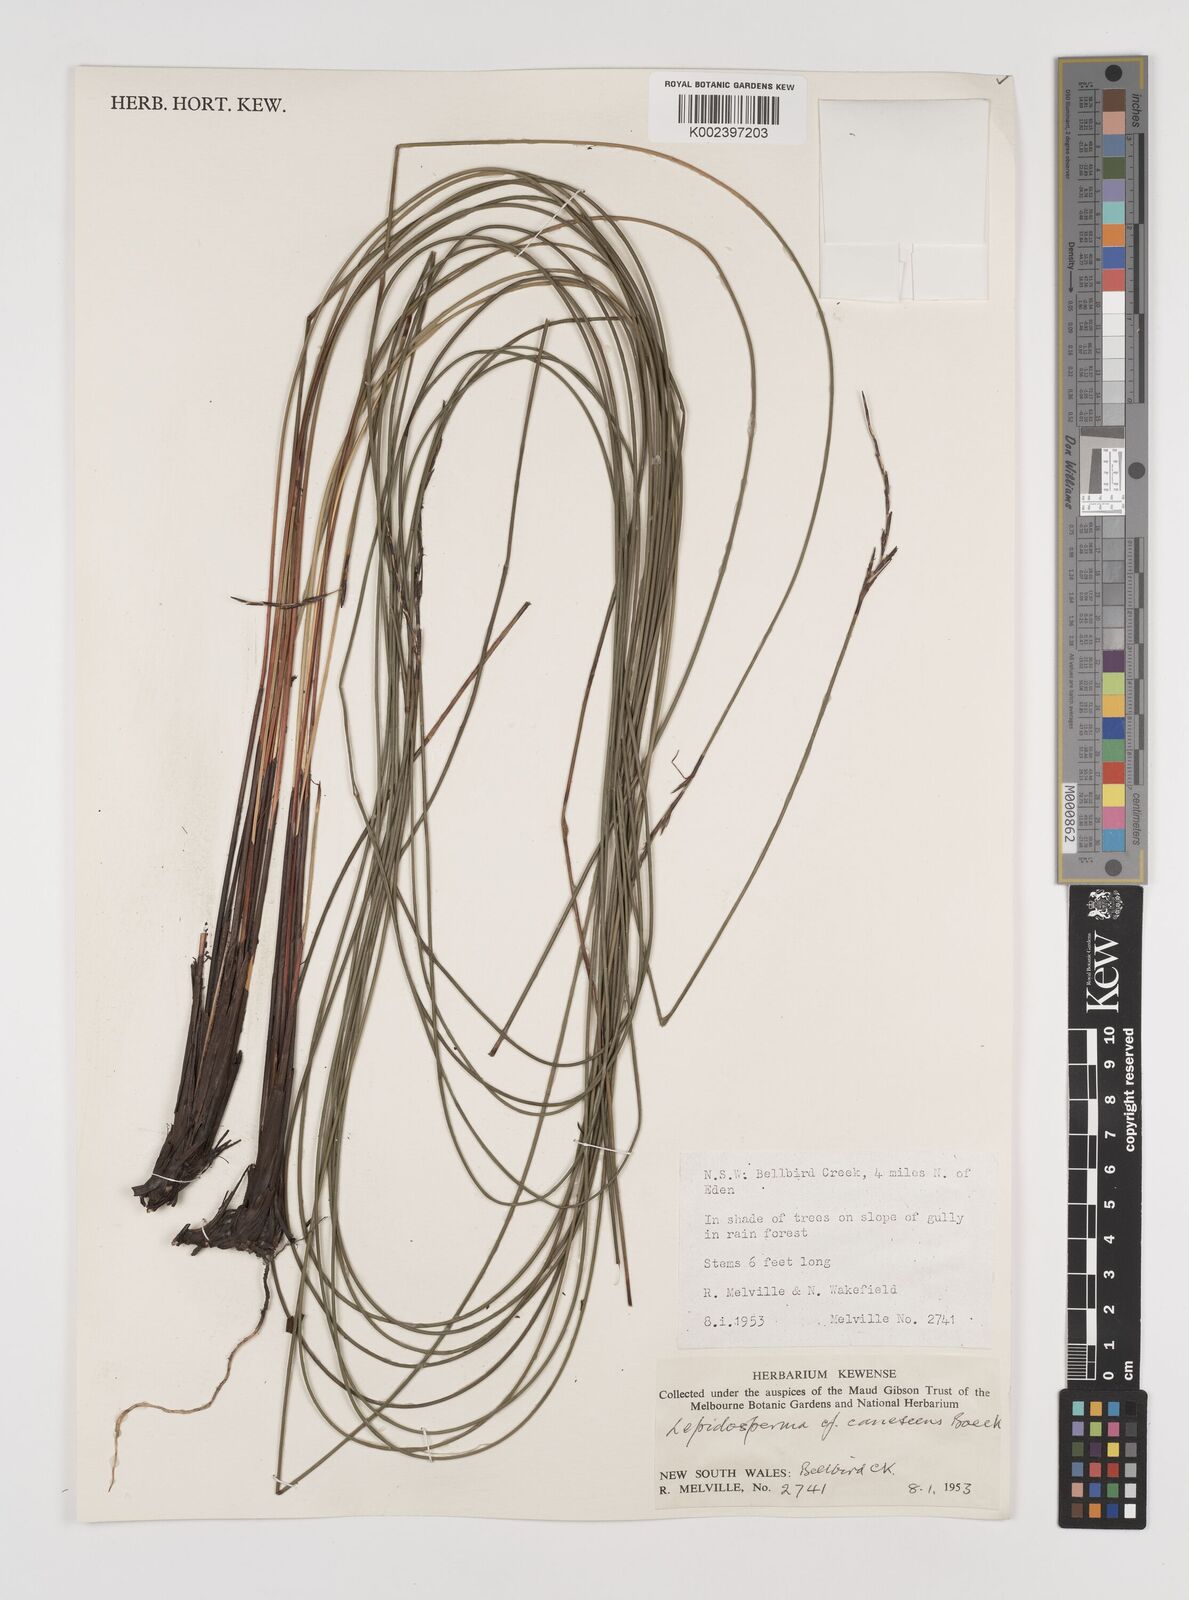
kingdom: Plantae
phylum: Tracheophyta
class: Liliopsida
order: Poales
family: Cyperaceae
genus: Lepidosperma
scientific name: Lepidosperma urophorum
